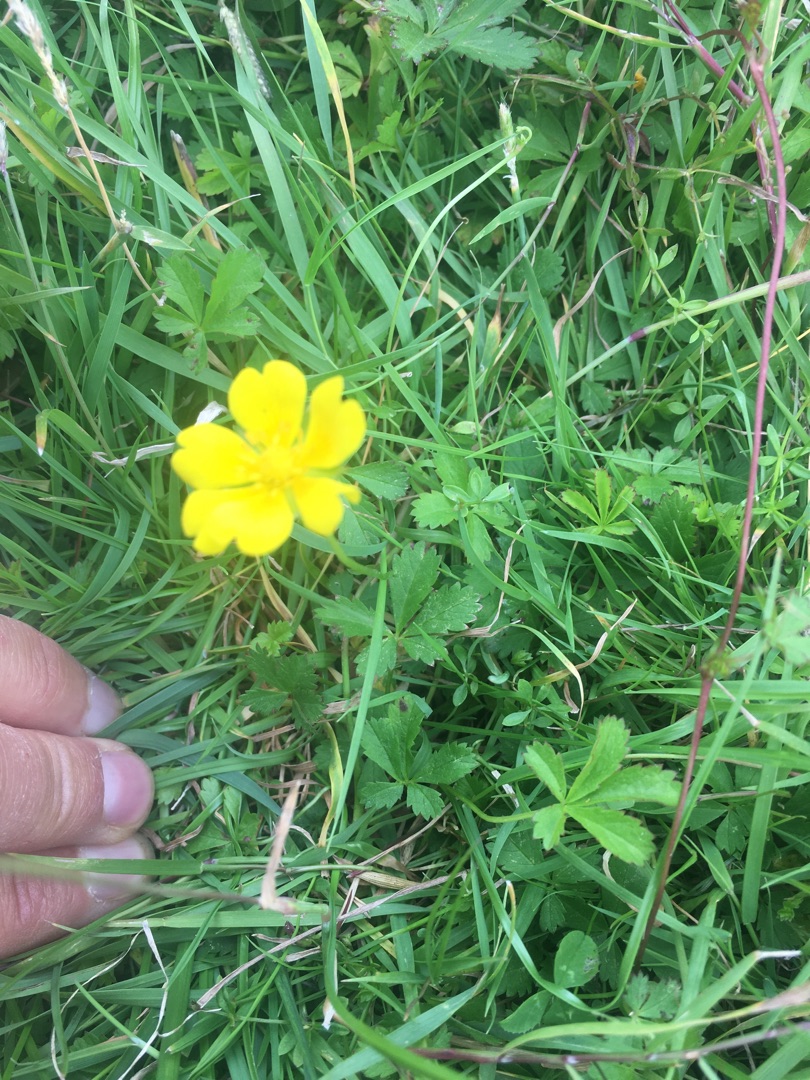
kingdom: Plantae
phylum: Tracheophyta
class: Magnoliopsida
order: Rosales
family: Rosaceae
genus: Potentilla
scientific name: Potentilla reptans
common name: Krybende potentil
